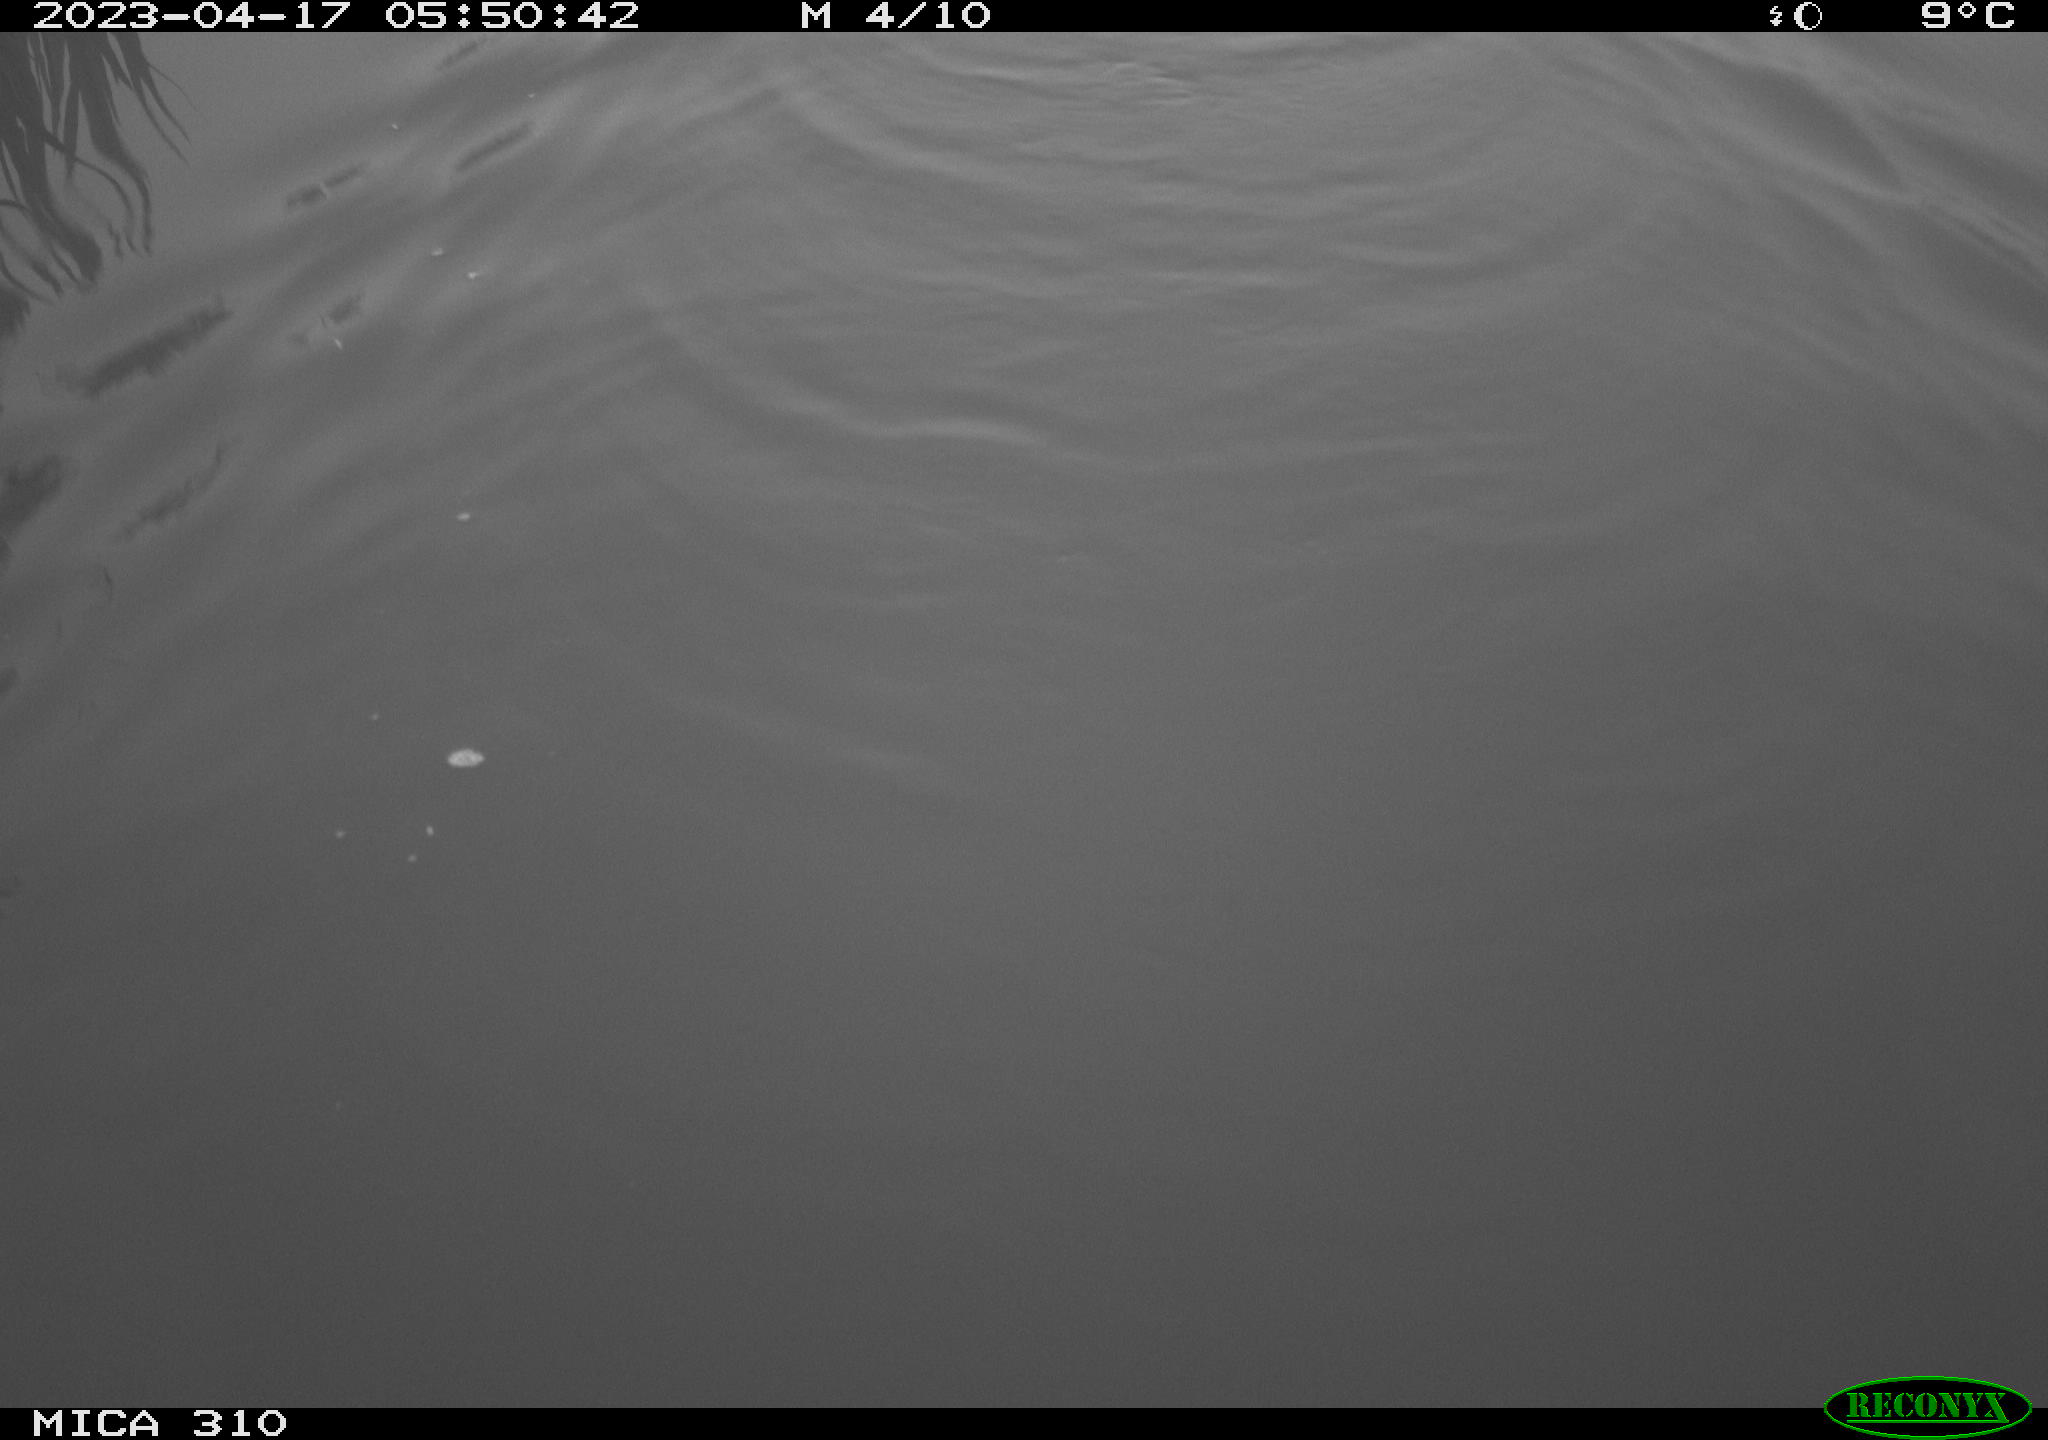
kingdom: Animalia
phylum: Chordata
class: Mammalia
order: Rodentia
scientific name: Rodentia
